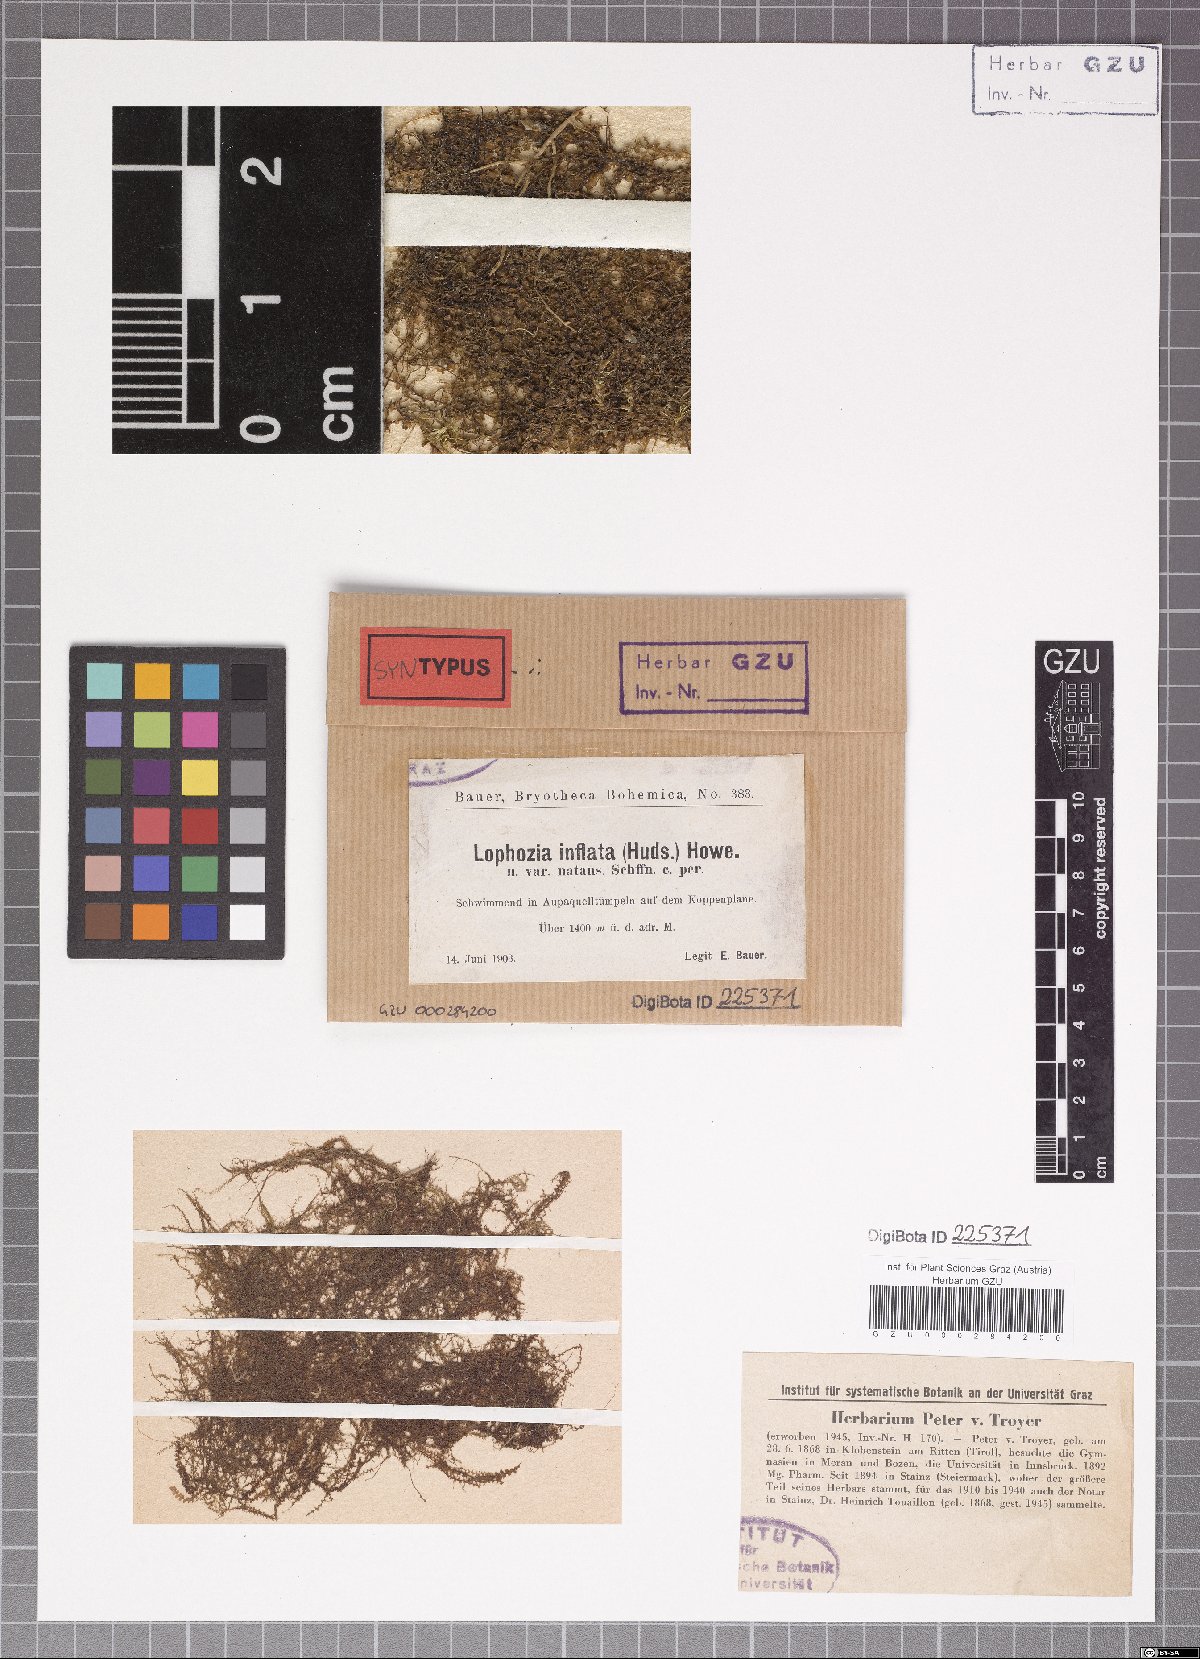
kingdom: Plantae
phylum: Marchantiophyta
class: Jungermanniopsida
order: Jungermanniales
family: Anastrophyllaceae
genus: Gymnocolea
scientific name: Gymnocolea inflata
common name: Inflated notchwort
